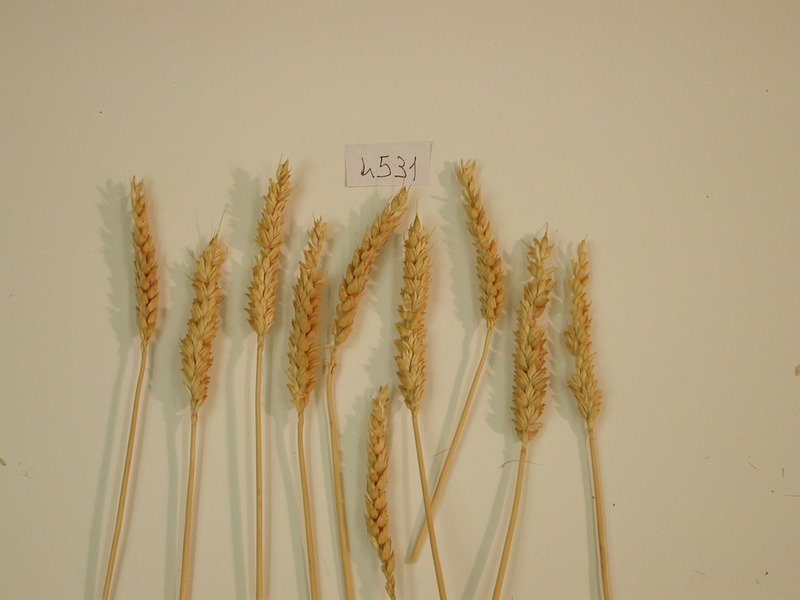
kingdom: Plantae
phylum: Tracheophyta
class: Liliopsida
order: Poales
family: Poaceae
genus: Triticum
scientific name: Triticum aestivum
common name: Wheat
